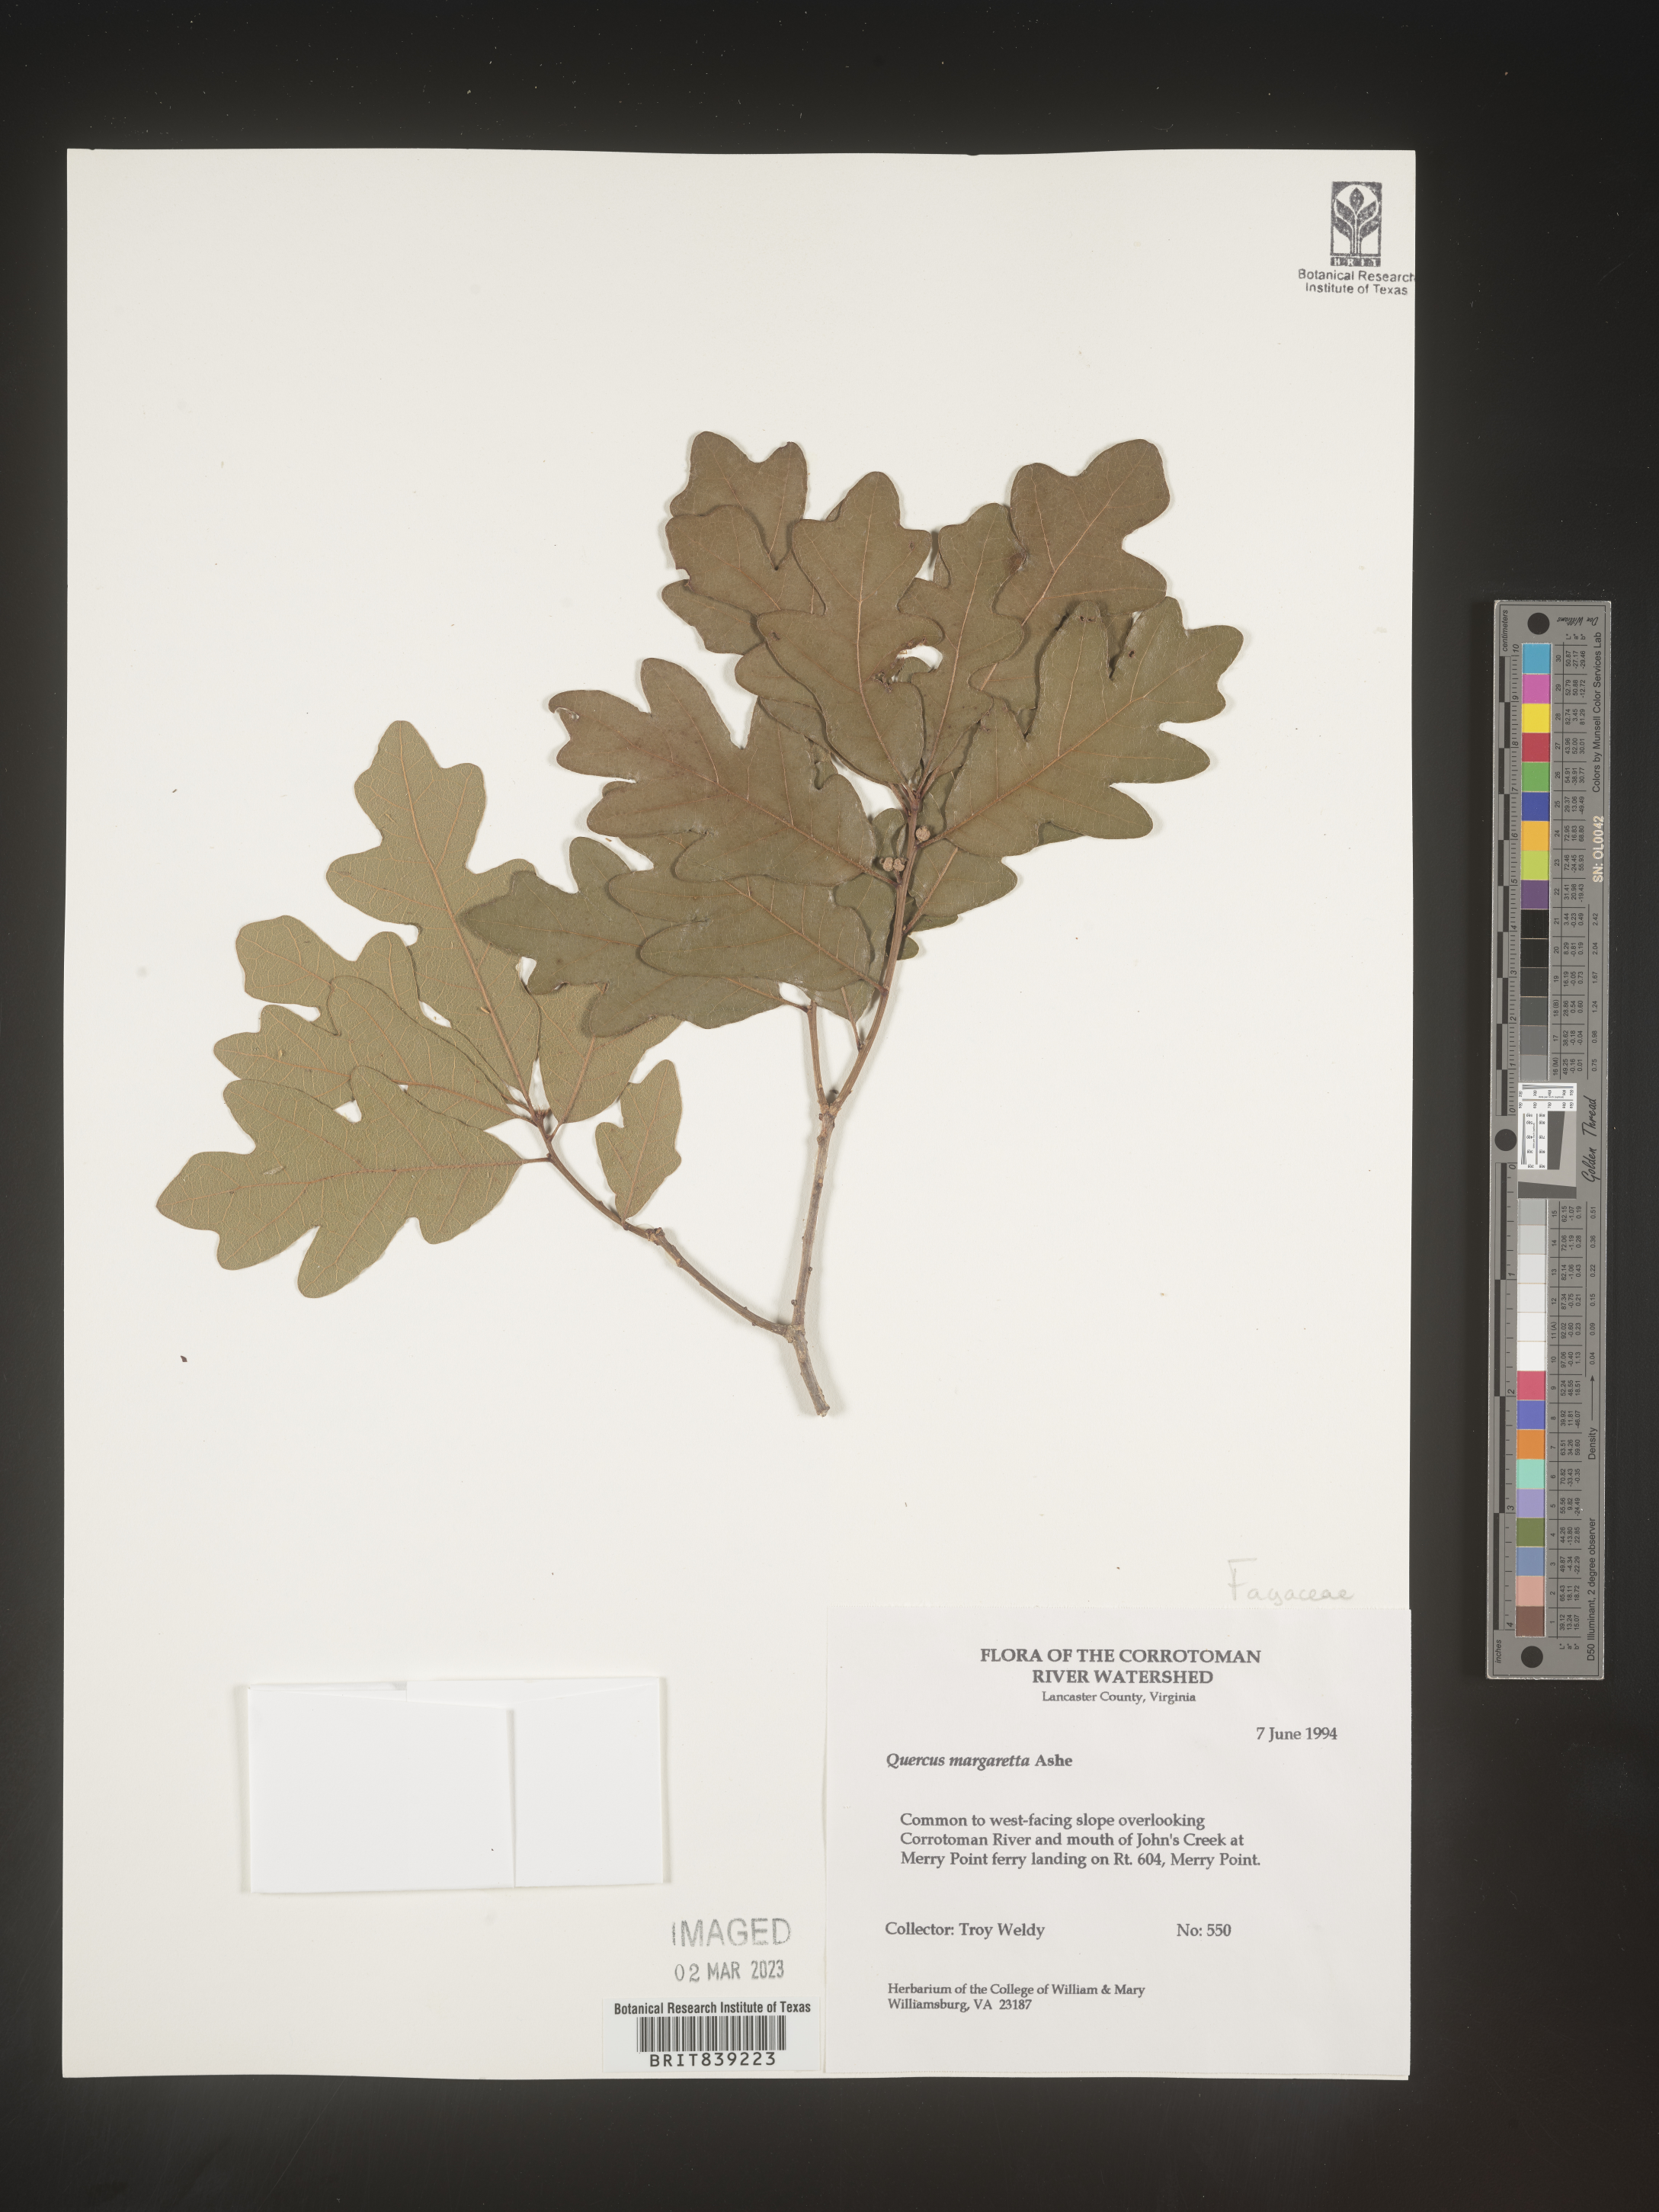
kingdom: Plantae
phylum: Tracheophyta
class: Magnoliopsida
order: Fagales
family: Fagaceae
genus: Quercus
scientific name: Quercus margaretta
